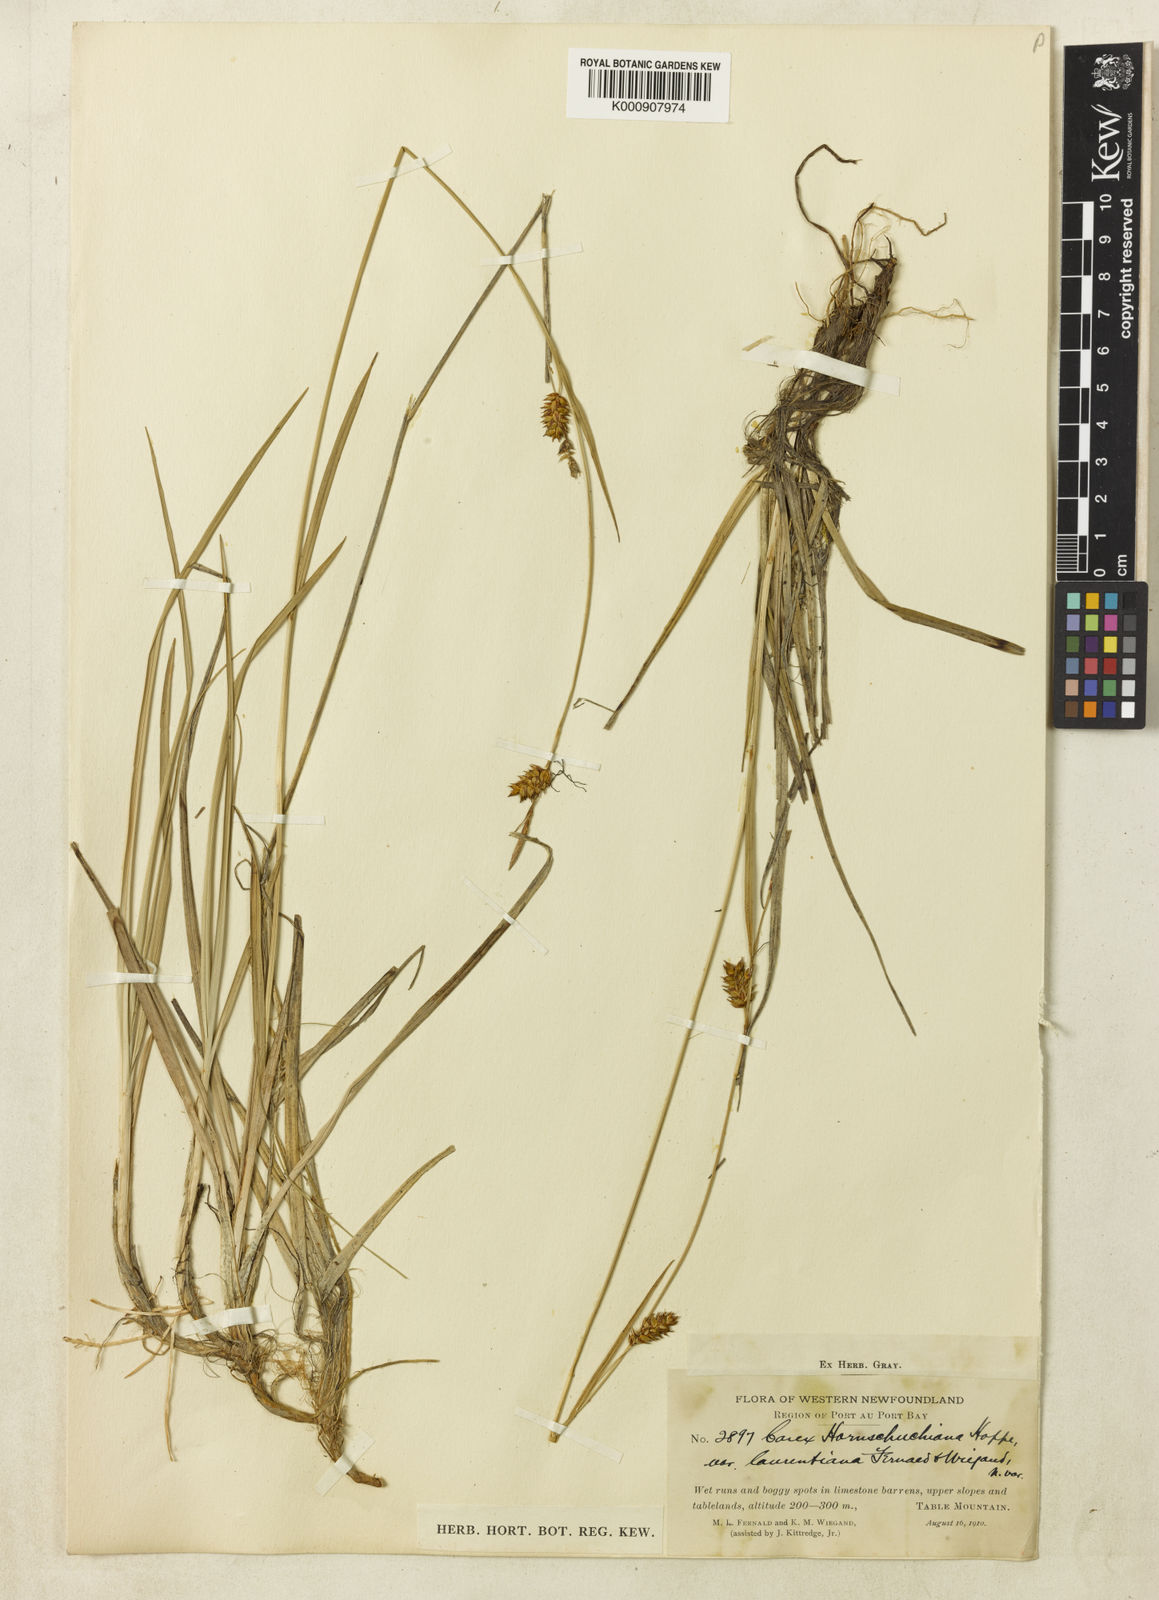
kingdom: Plantae
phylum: Tracheophyta
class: Liliopsida
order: Poales
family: Cyperaceae
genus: Carex
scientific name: Carex hostiana
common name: Tawny sedge
